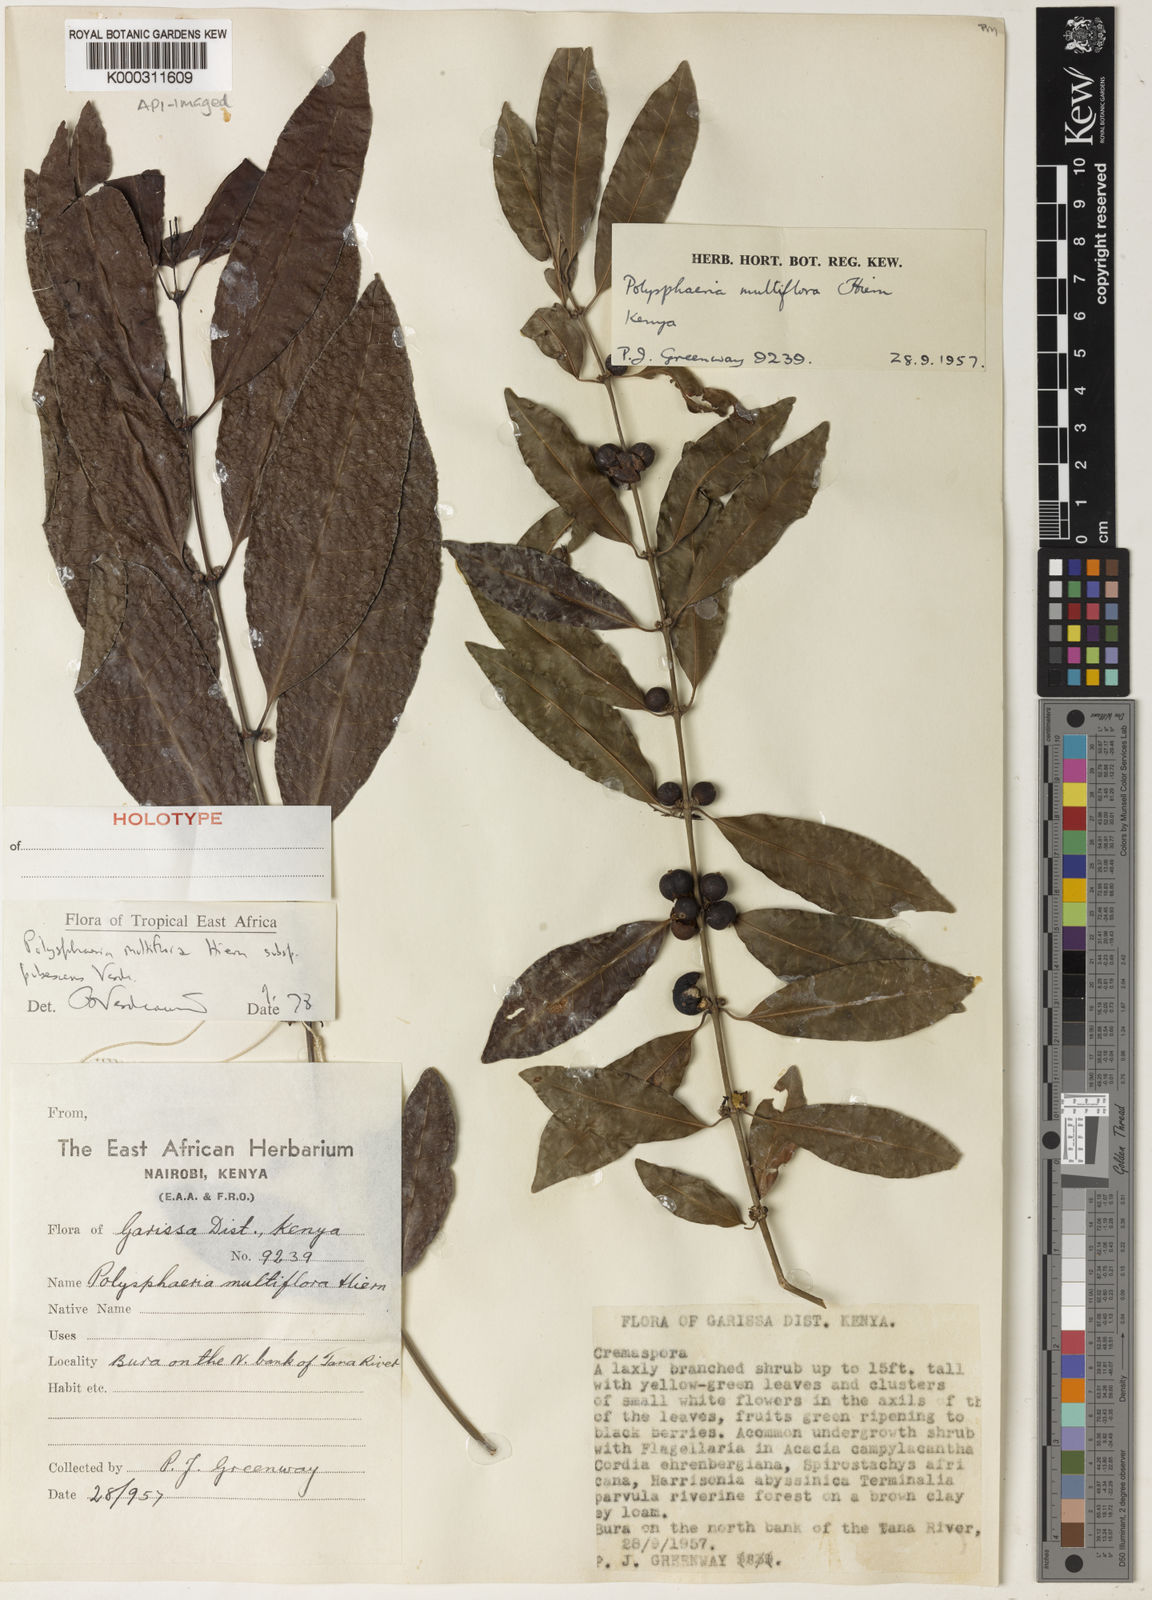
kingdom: Plantae
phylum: Tracheophyta
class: Magnoliopsida
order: Gentianales
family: Rubiaceae
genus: Polysphaeria
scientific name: Polysphaeria multiflora
